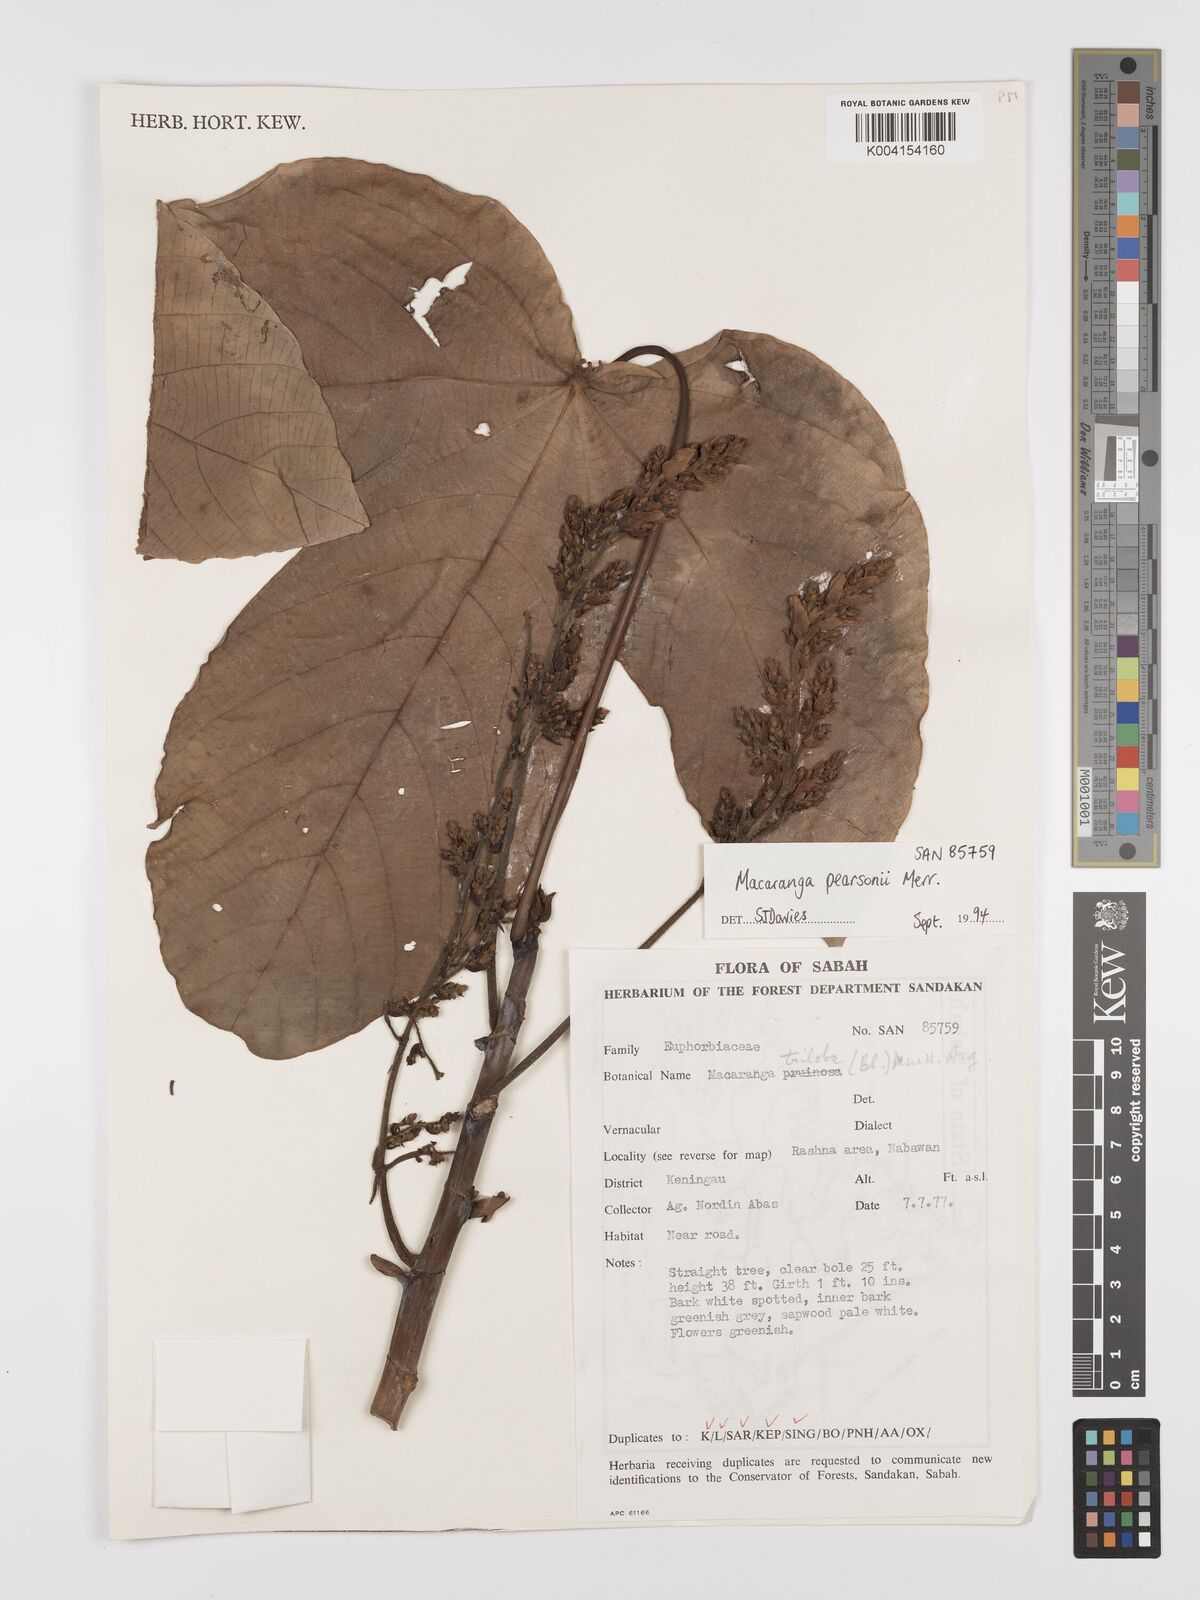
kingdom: Plantae
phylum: Tracheophyta
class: Magnoliopsida
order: Malpighiales
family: Euphorbiaceae
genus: Macaranga
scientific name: Macaranga pearsonii
